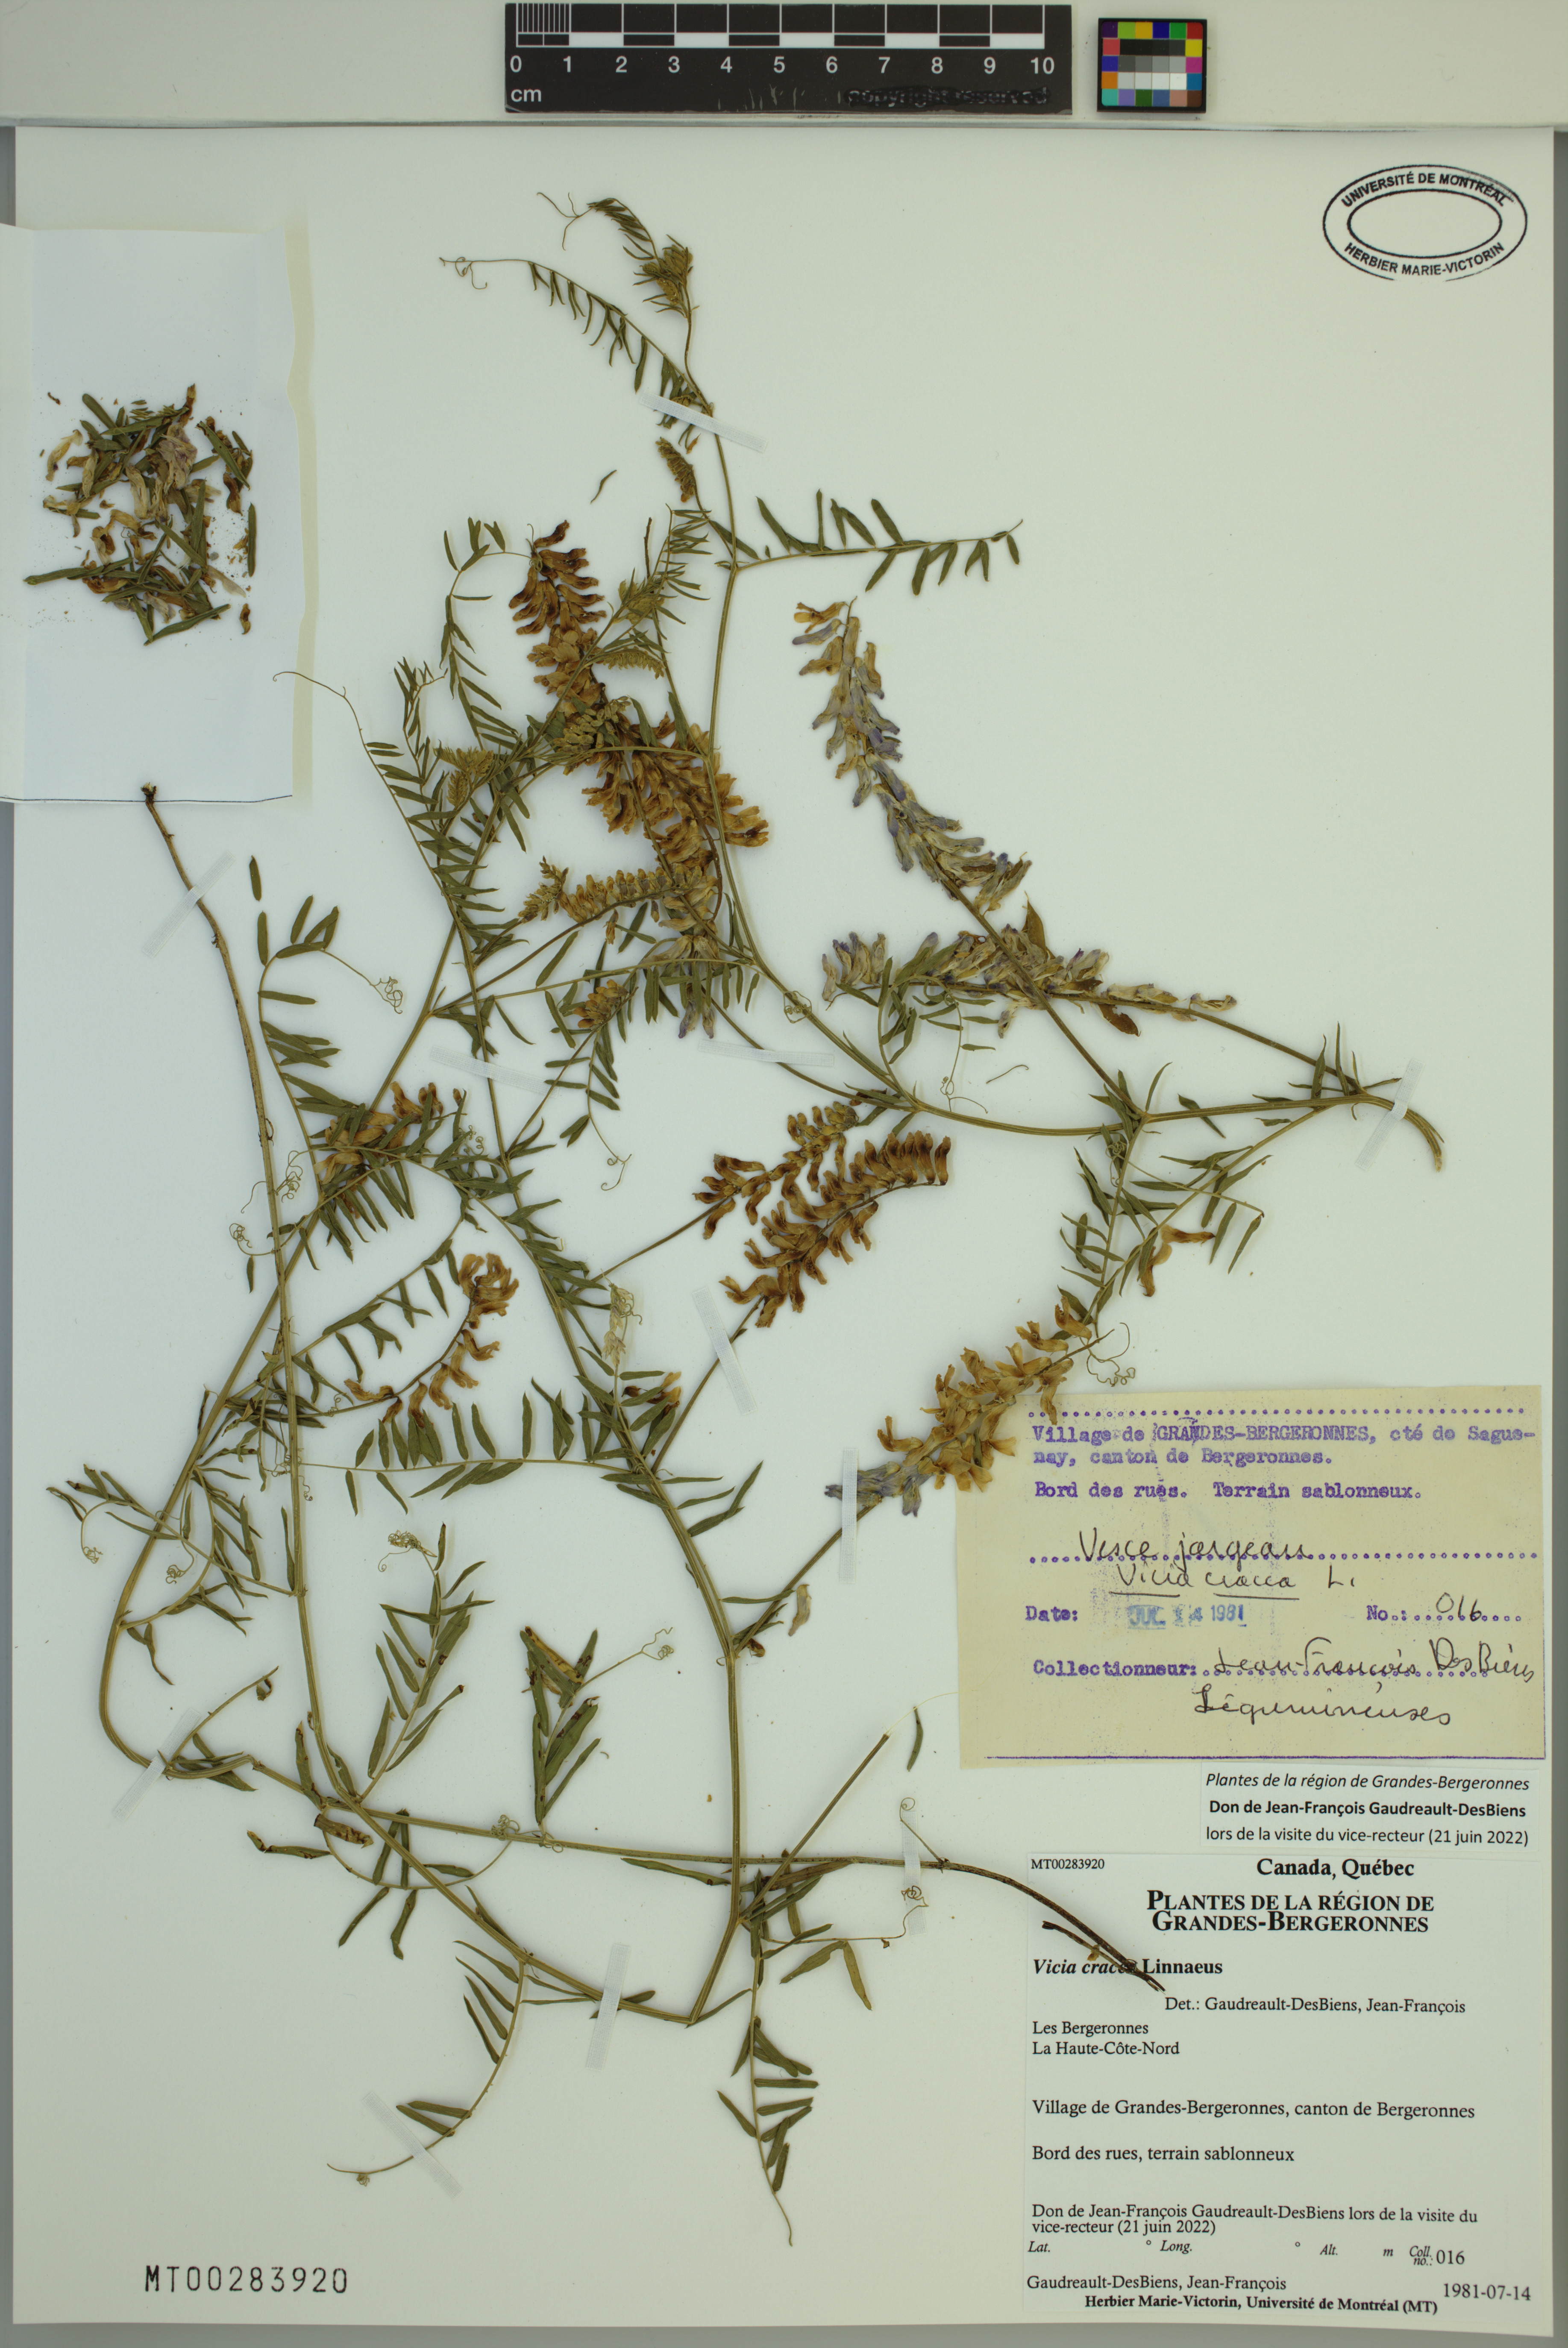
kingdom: Plantae
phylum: Tracheophyta
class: Magnoliopsida
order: Fabales
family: Fabaceae
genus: Vicia
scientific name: Vicia cracca
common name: Bird vetch
